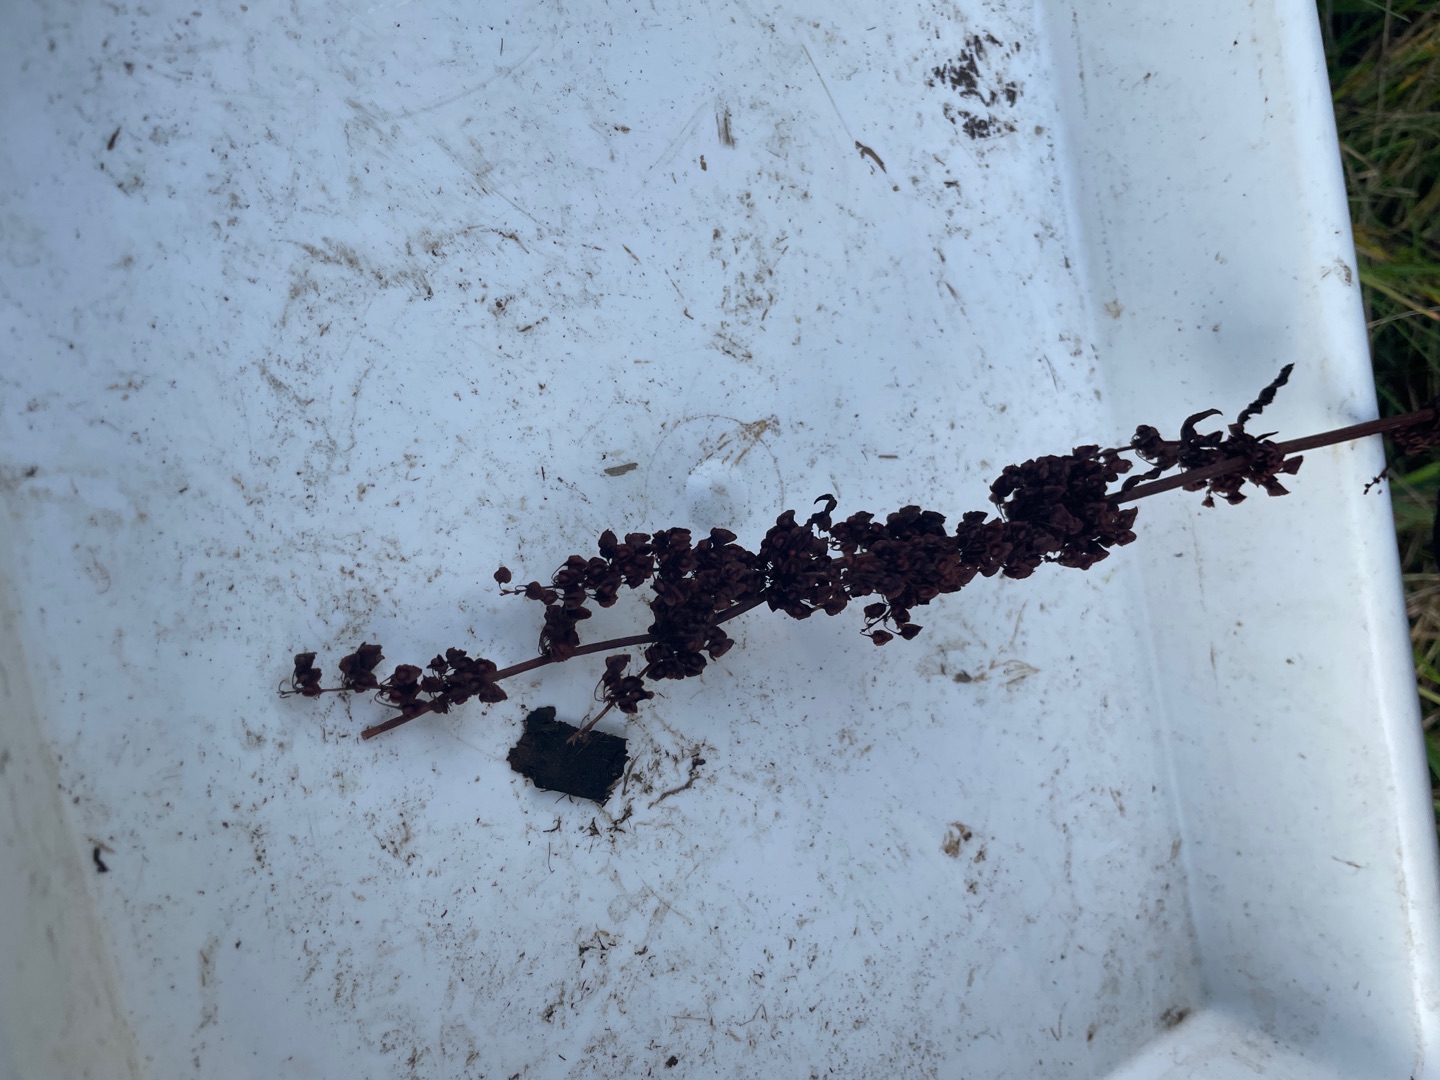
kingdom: Plantae
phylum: Tracheophyta
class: Magnoliopsida
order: Caryophyllales
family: Polygonaceae
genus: Rumex
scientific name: Rumex crispus
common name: Kruset skræppe
